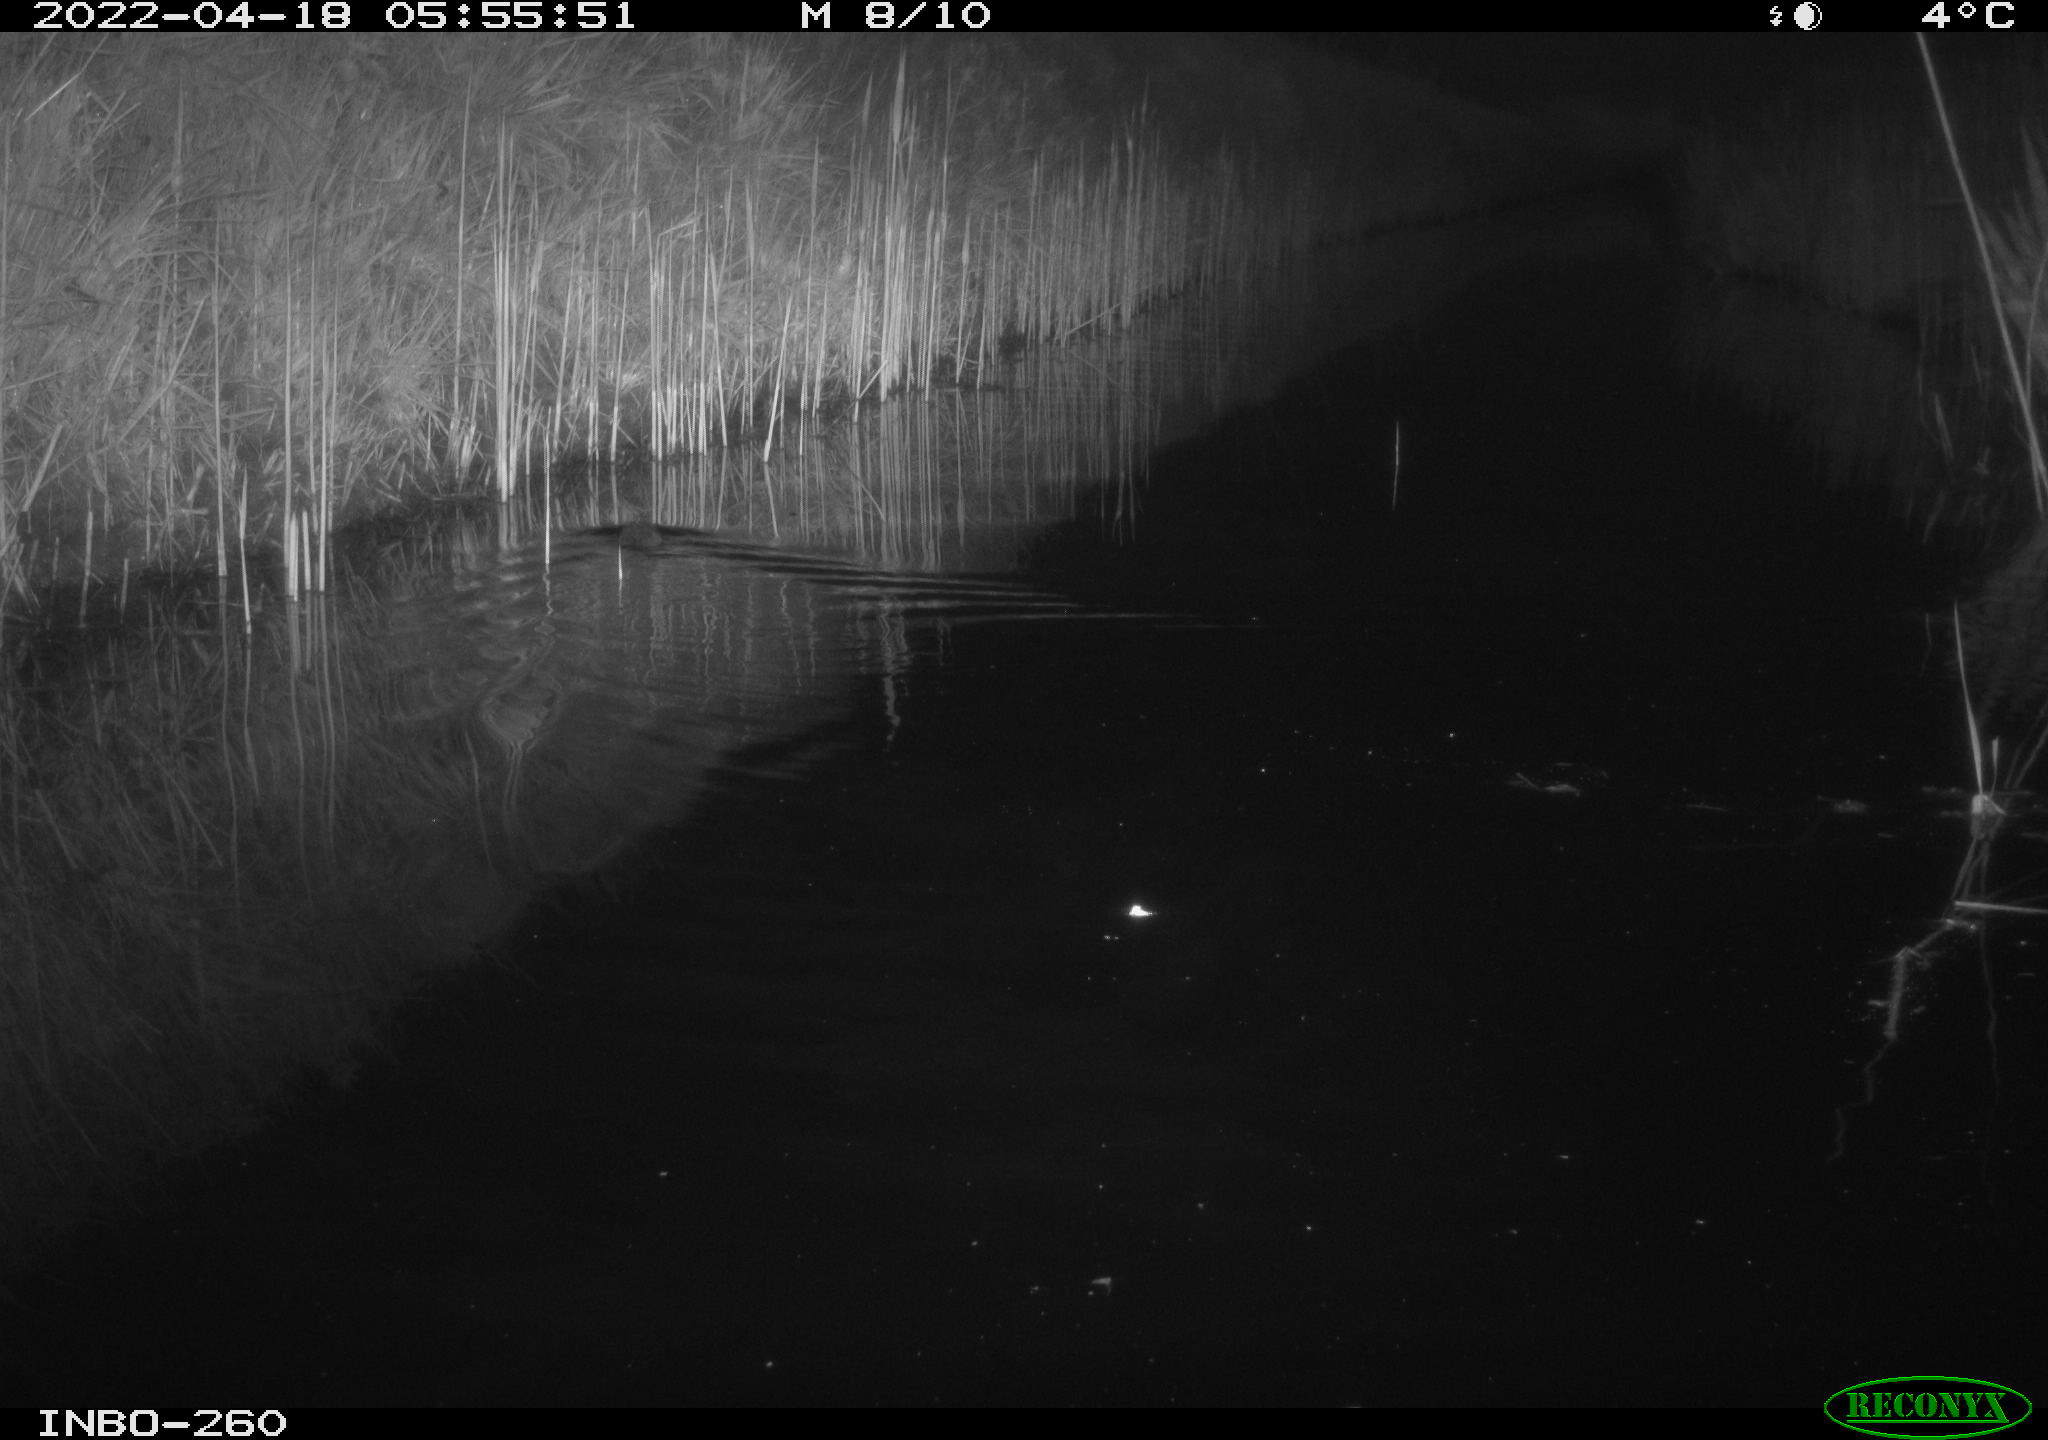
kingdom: Animalia
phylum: Chordata
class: Mammalia
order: Rodentia
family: Muridae
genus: Rattus
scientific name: Rattus norvegicus
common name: Brown rat
